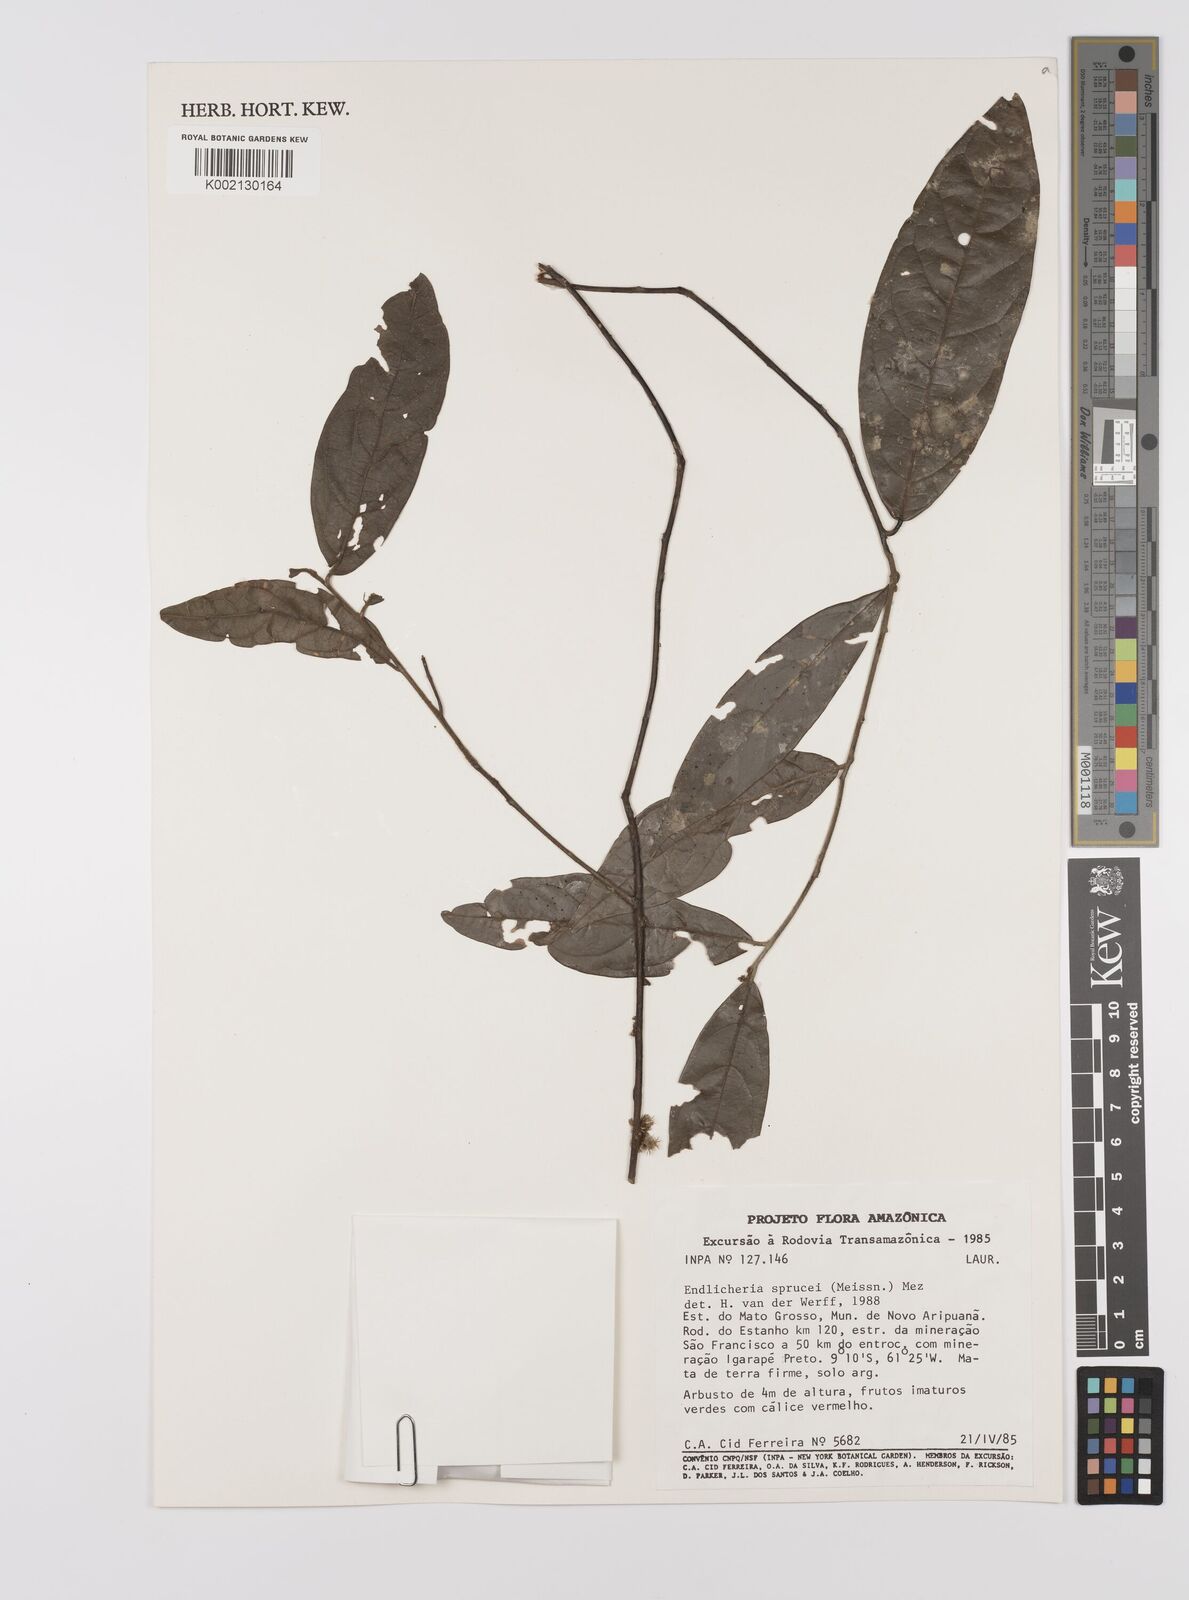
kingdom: Plantae
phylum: Tracheophyta
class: Magnoliopsida
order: Laurales
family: Lauraceae
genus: Endlicheria
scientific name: Endlicheria sprucei
